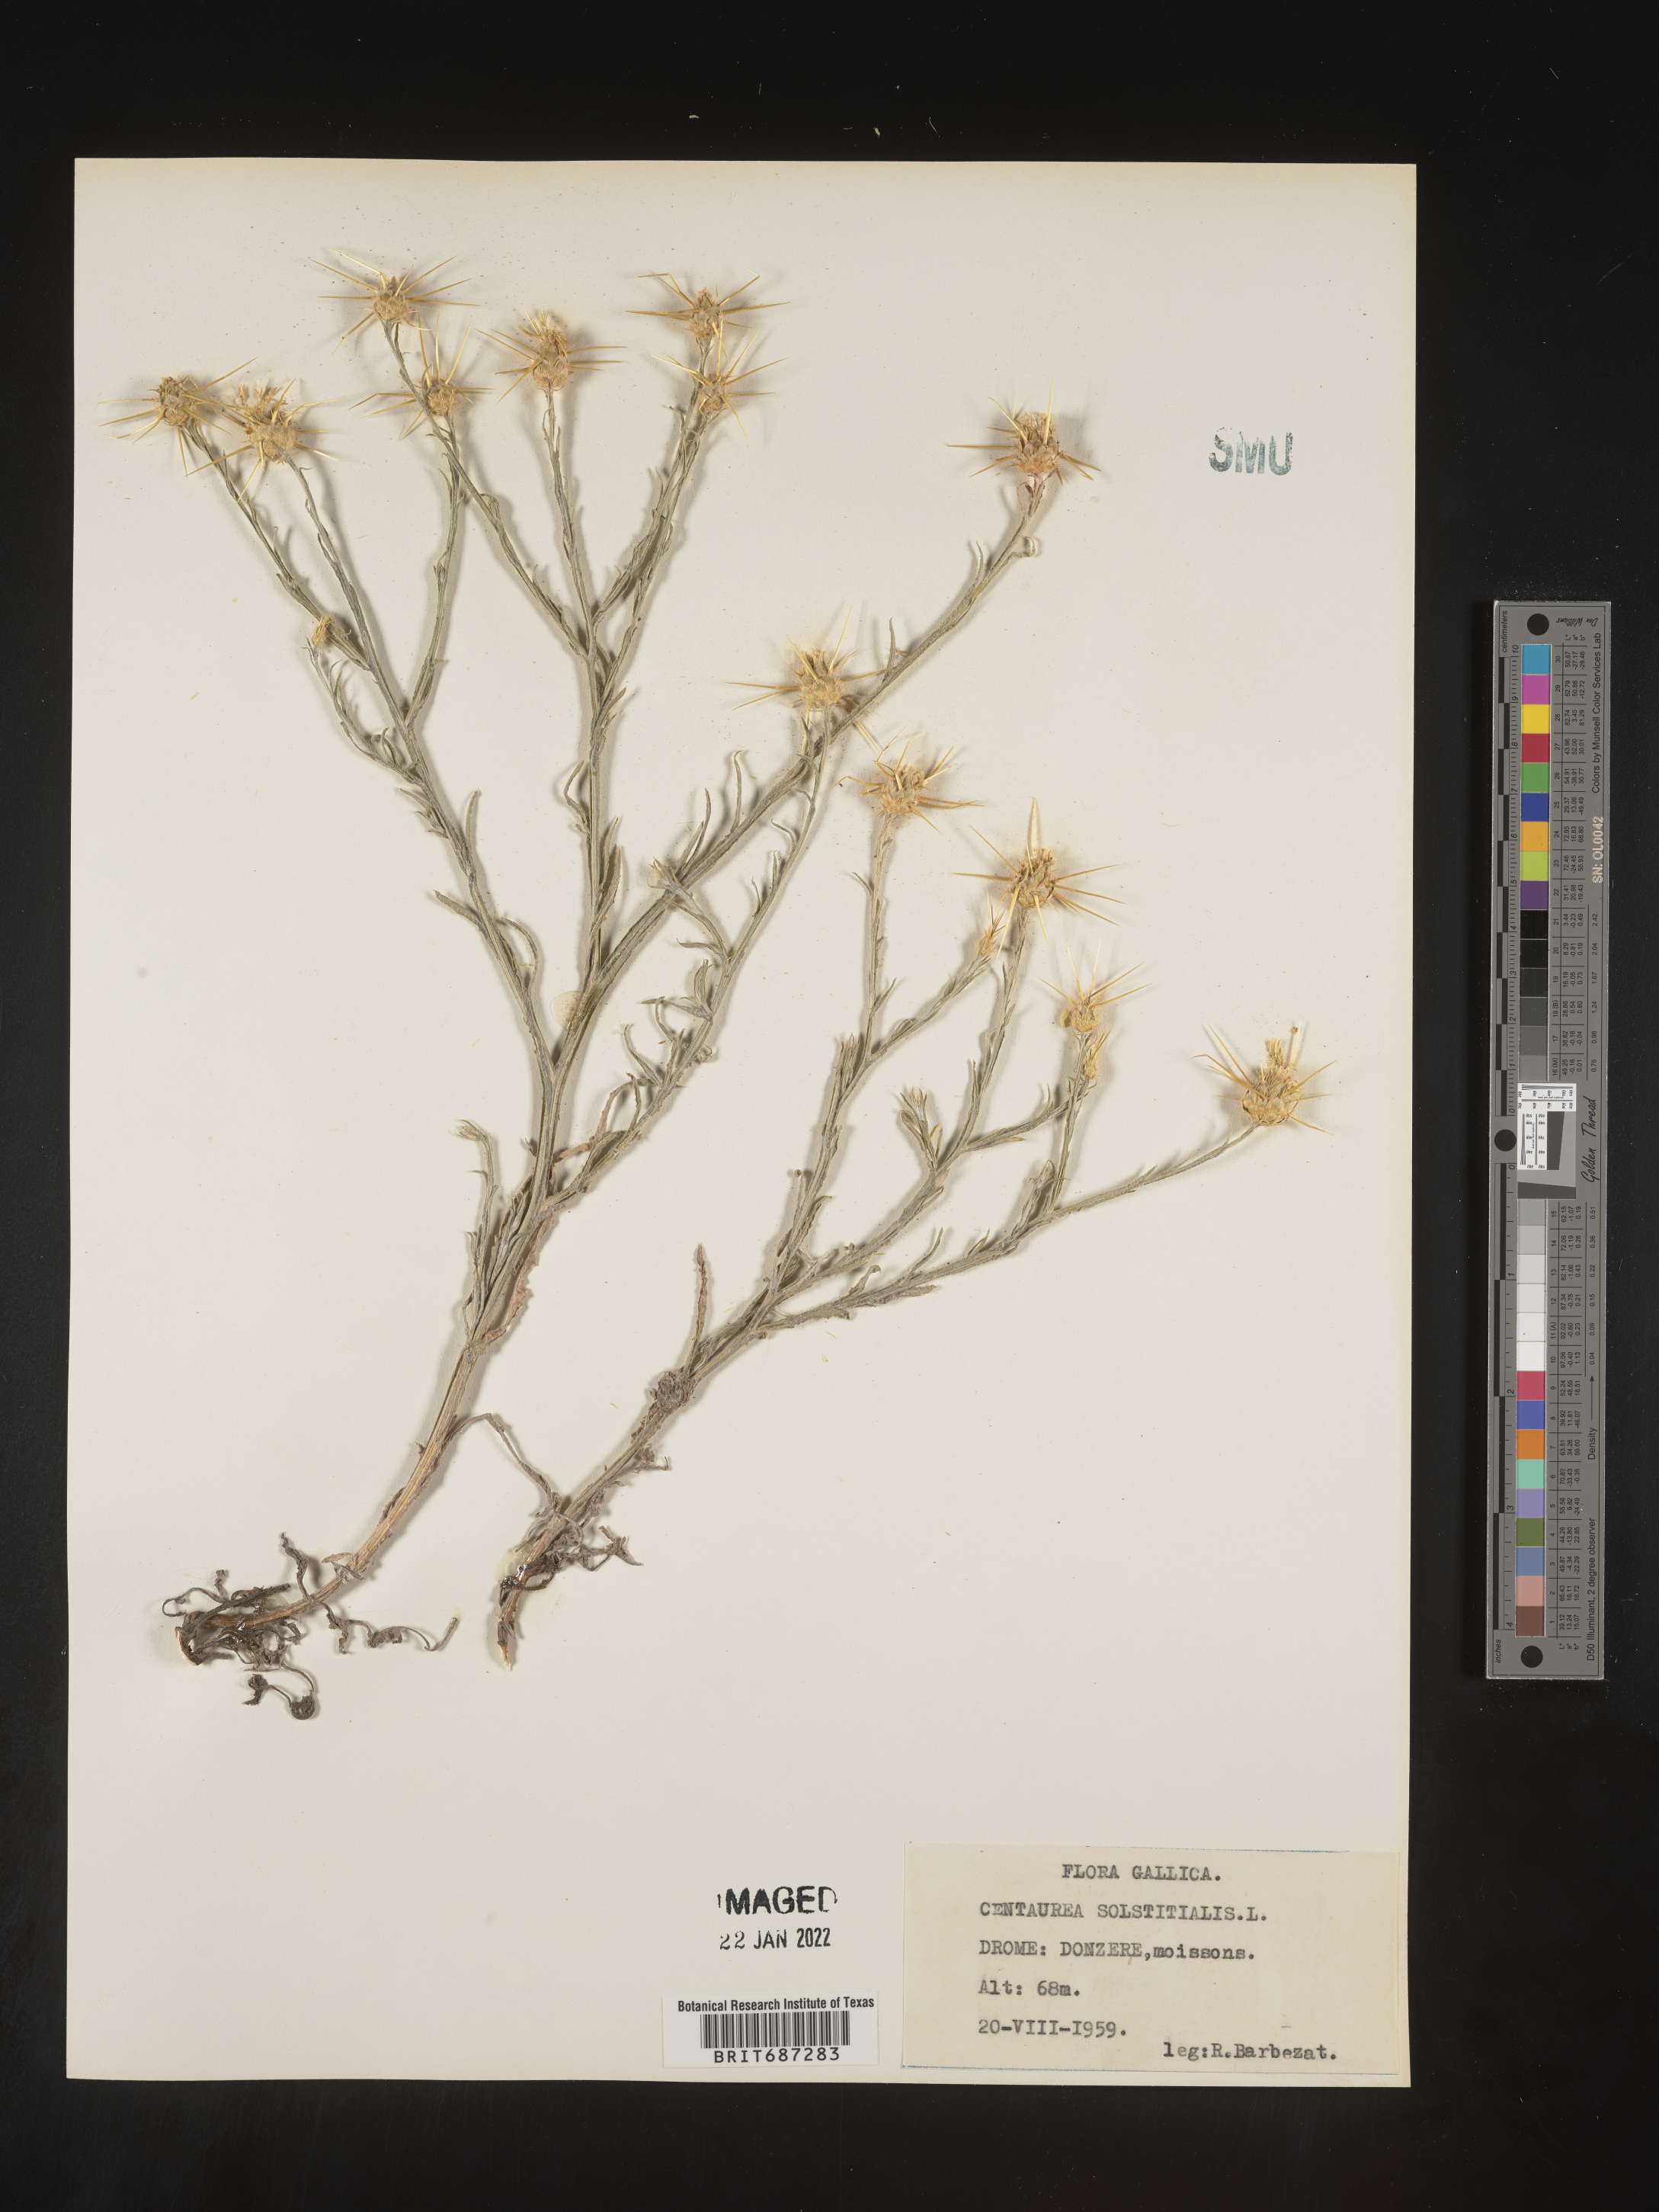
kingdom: Plantae
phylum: Tracheophyta
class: Magnoliopsida
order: Asterales
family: Asteraceae
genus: Centaurea
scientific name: Centaurea
